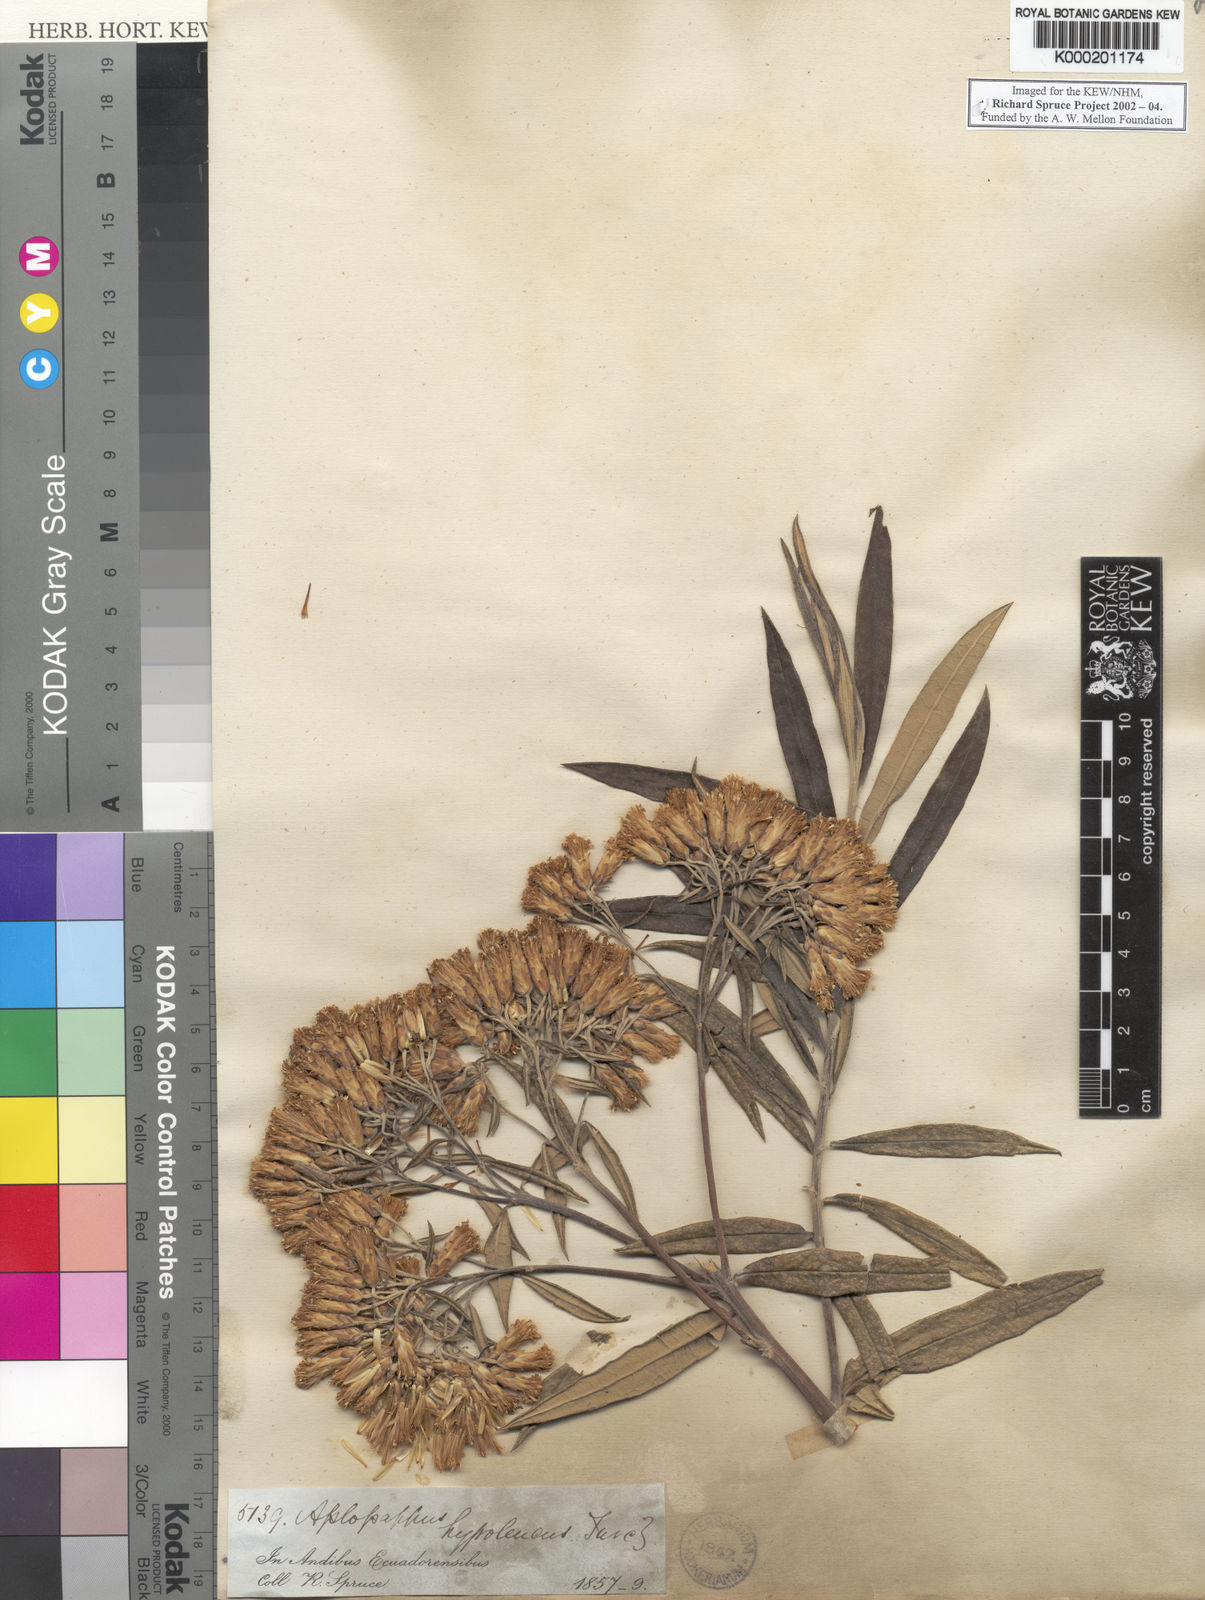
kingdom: Plantae
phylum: Tracheophyta
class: Magnoliopsida
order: Asterales
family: Asteraceae
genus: Llerasia
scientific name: Llerasia hypoleuca
